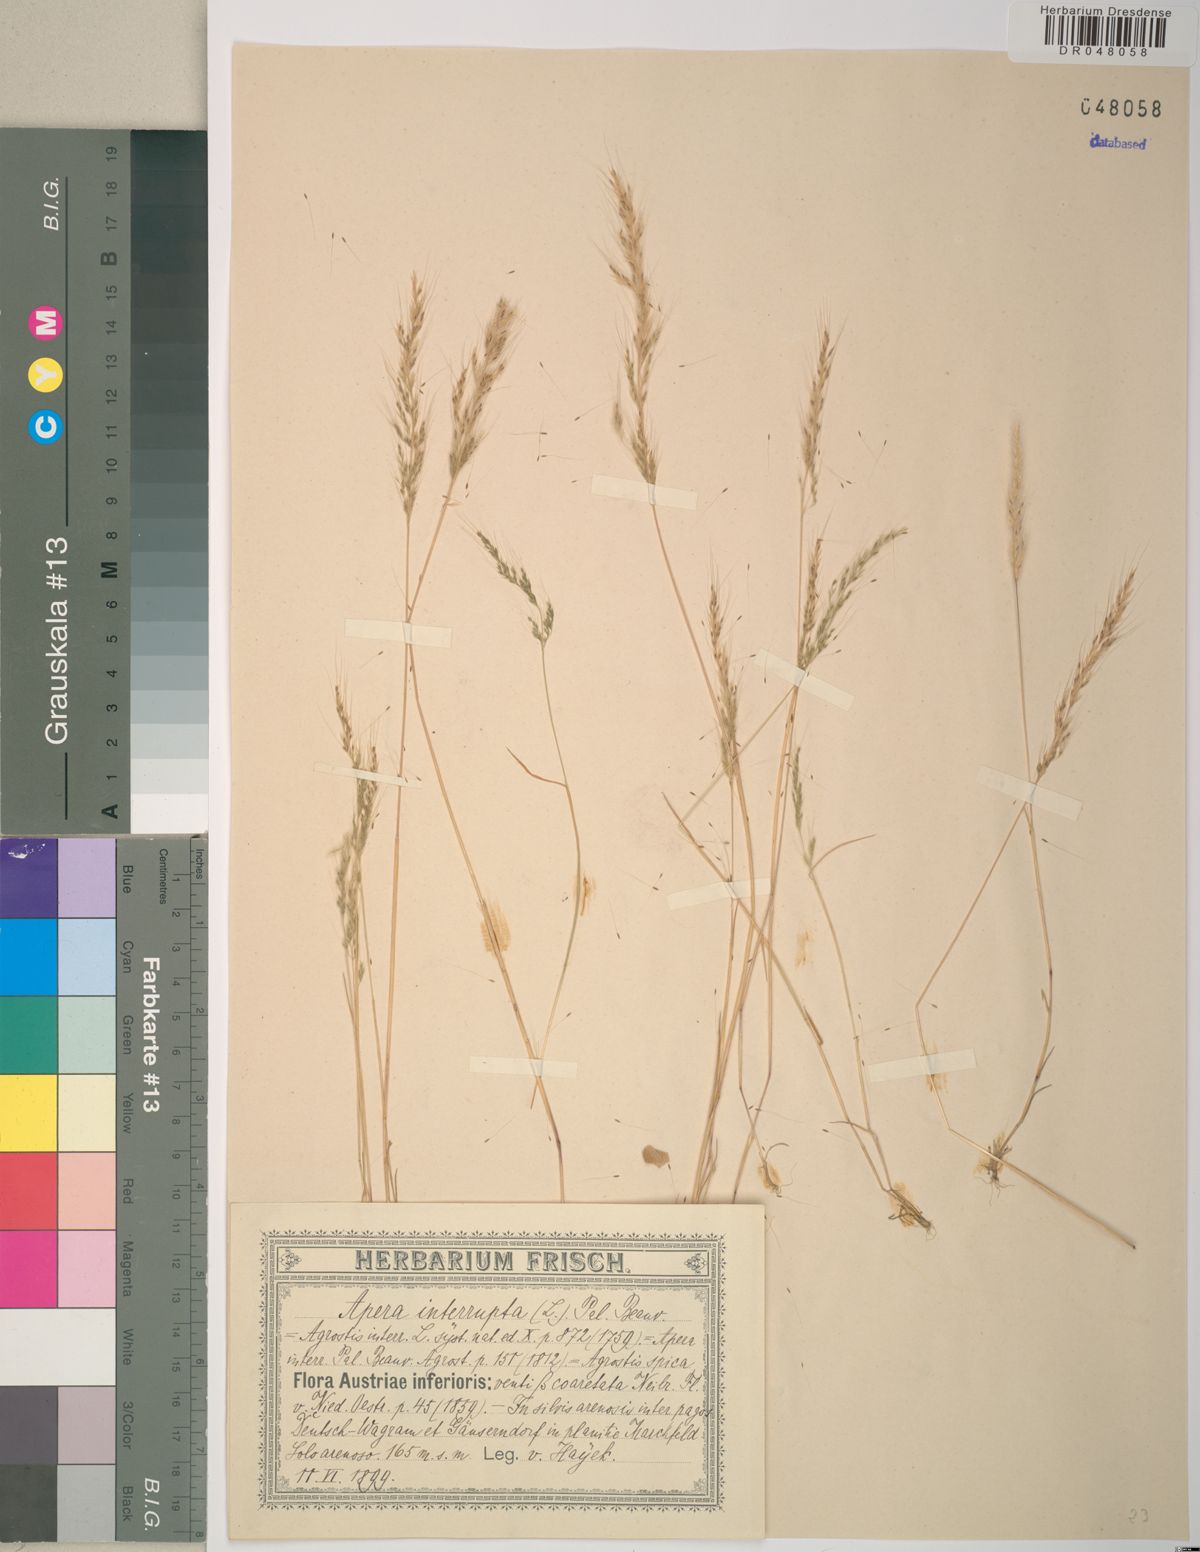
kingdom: Plantae
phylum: Tracheophyta
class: Liliopsida
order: Poales
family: Poaceae
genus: Apera
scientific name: Apera interrupta
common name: Dense silky-bent
